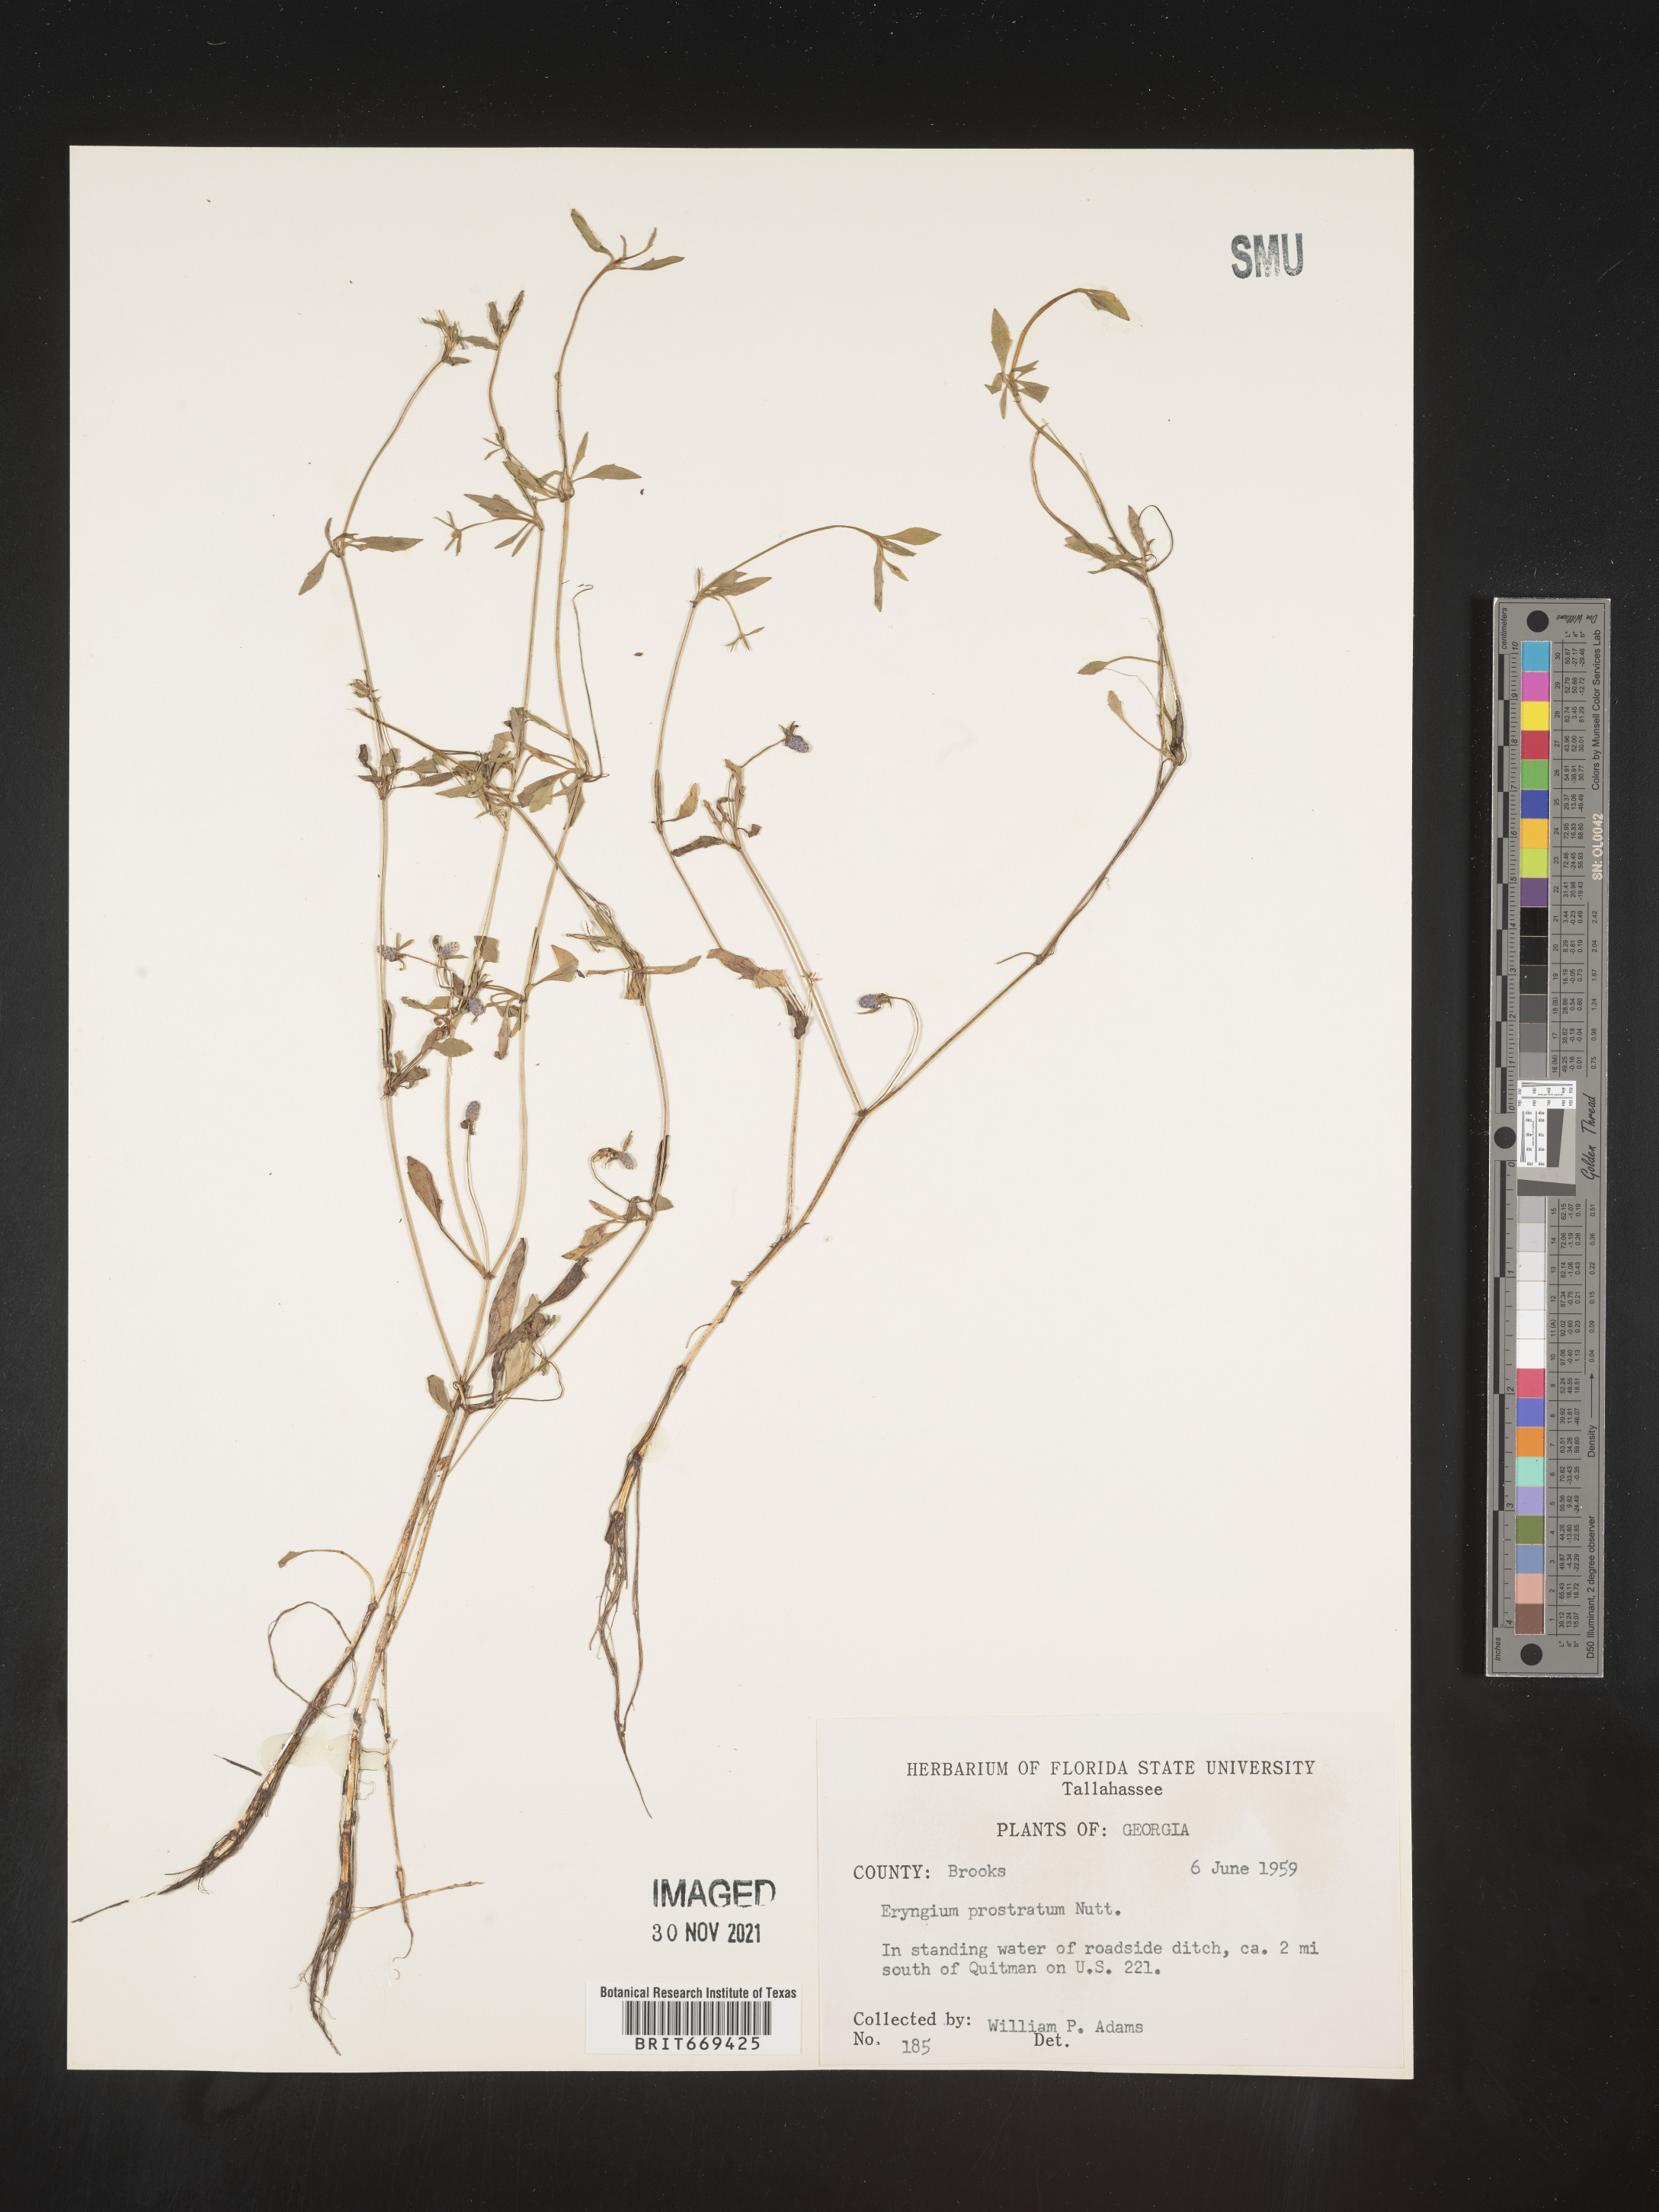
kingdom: Plantae
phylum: Tracheophyta
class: Magnoliopsida
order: Apiales
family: Apiaceae
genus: Eryngium
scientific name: Eryngium prostratum
